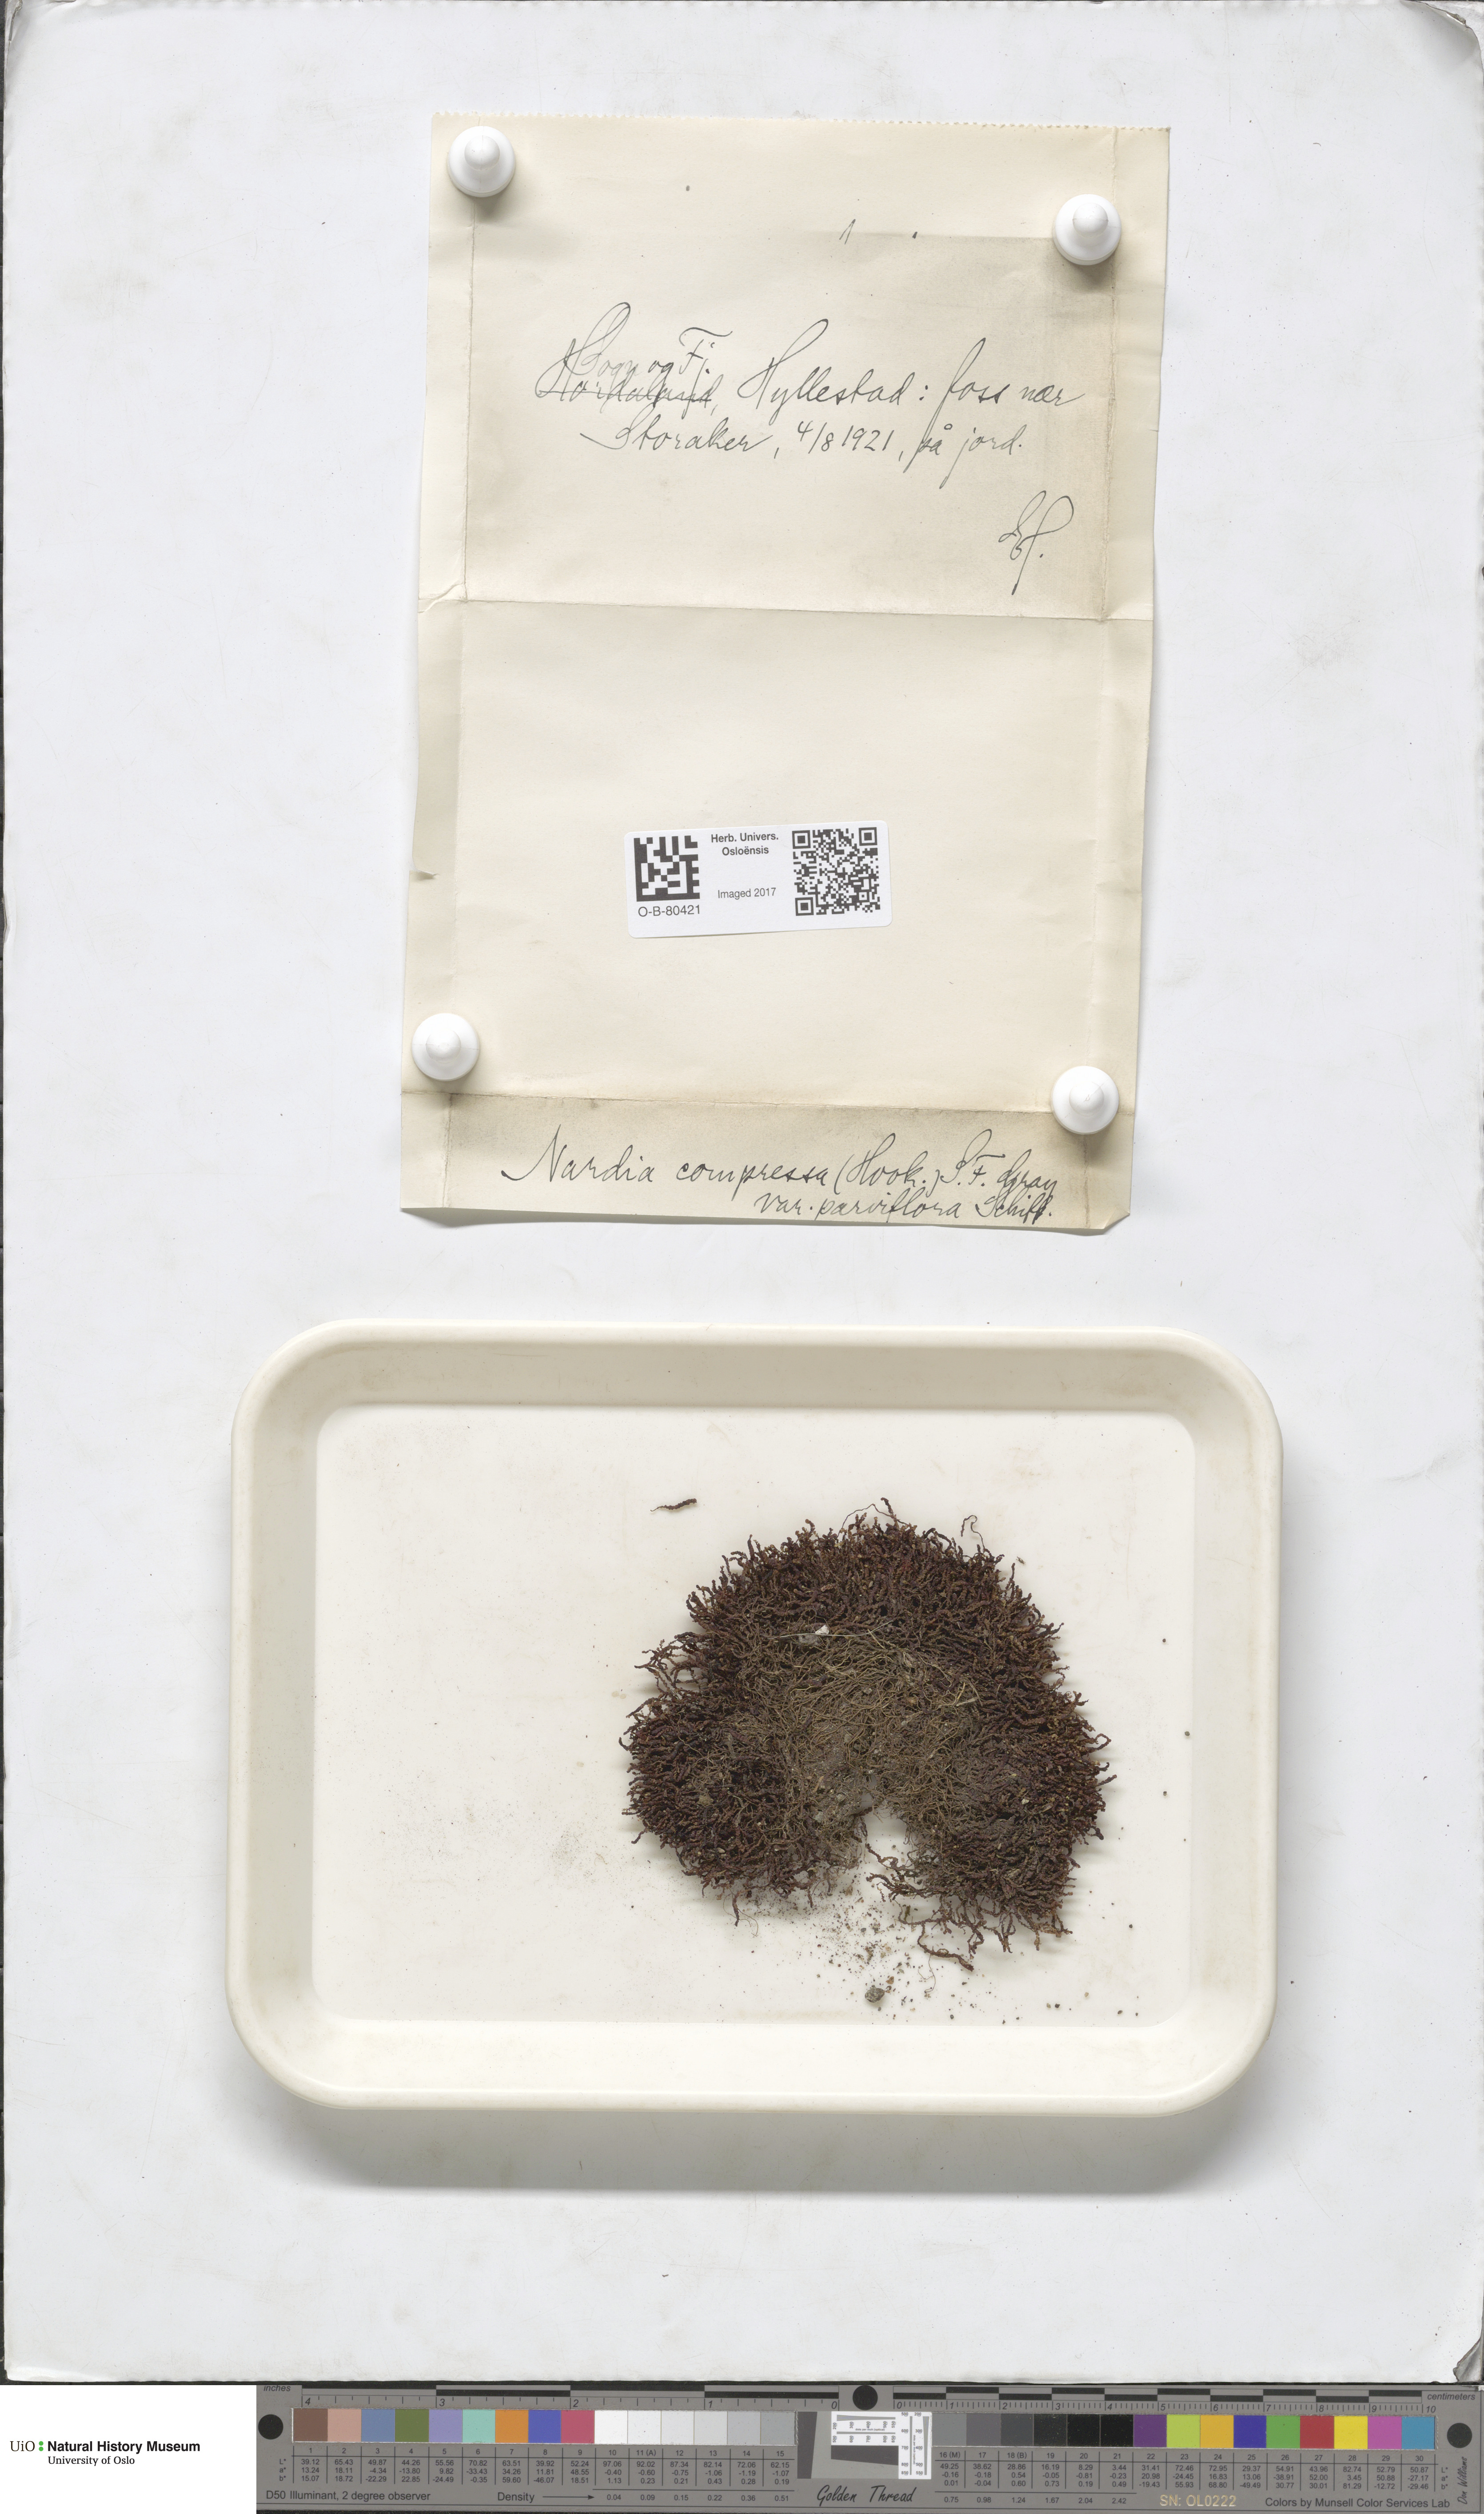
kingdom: Plantae
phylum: Marchantiophyta
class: Jungermanniopsida
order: Jungermanniales
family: Gymnomitriaceae
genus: Nardia
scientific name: Nardia compressa
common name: Compressed flapwort
